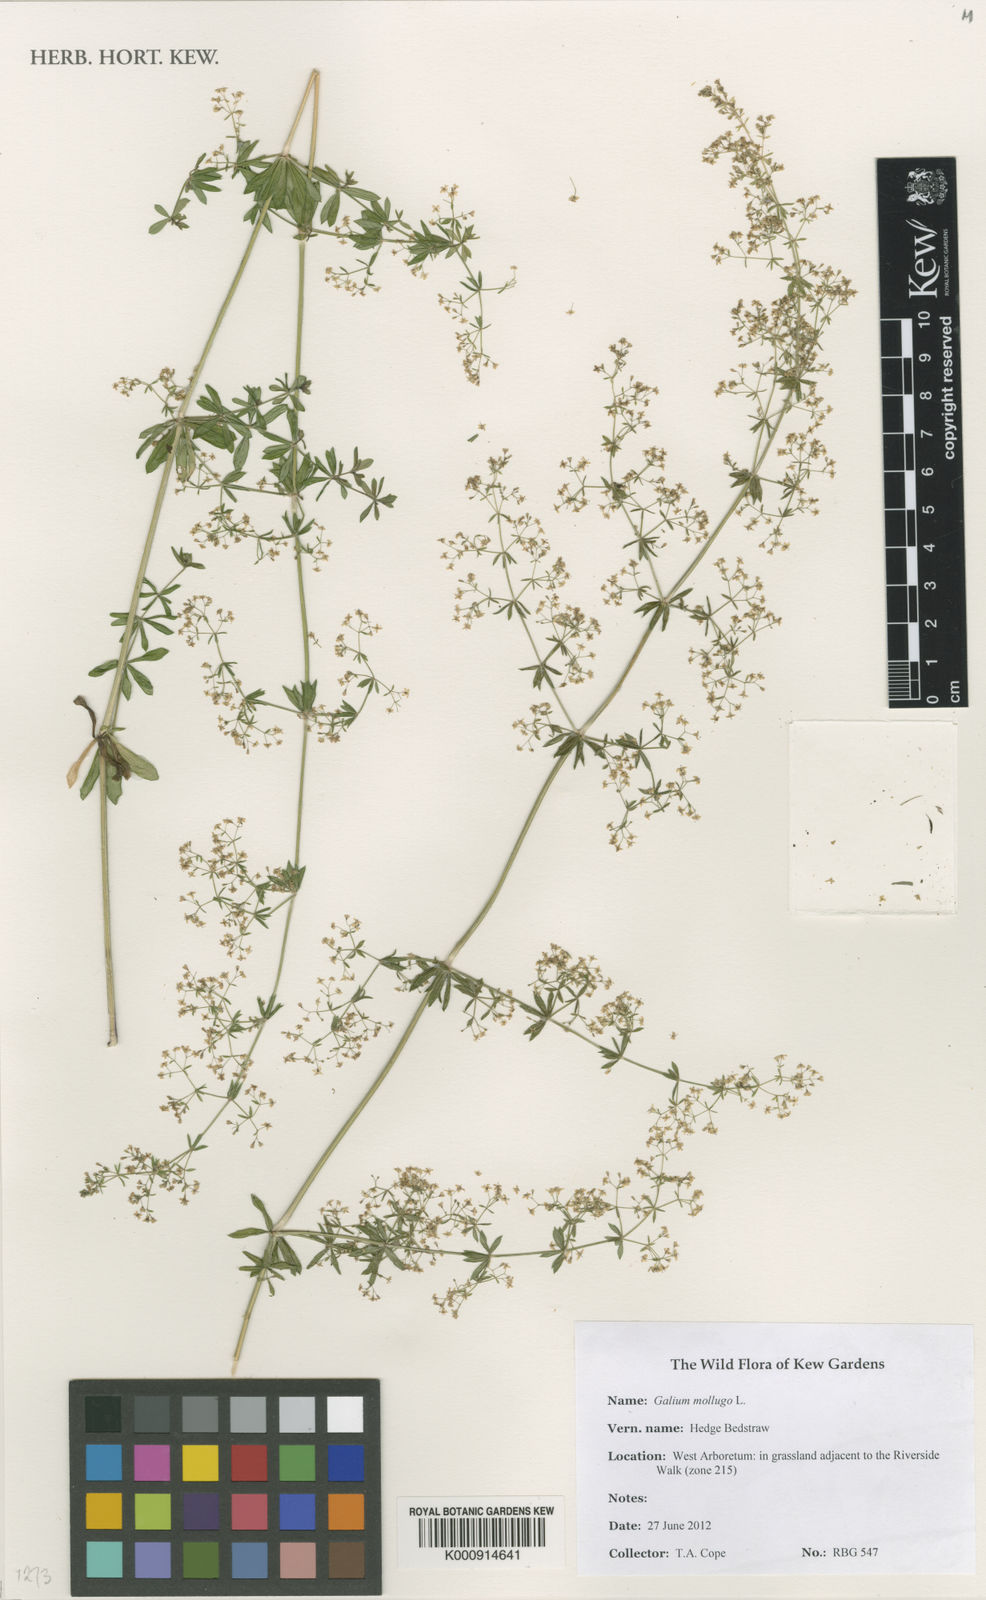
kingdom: Plantae
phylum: Tracheophyta
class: Magnoliopsida
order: Gentianales
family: Rubiaceae
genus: Galium
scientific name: Galium mollugo
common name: Hedge bedstraw
